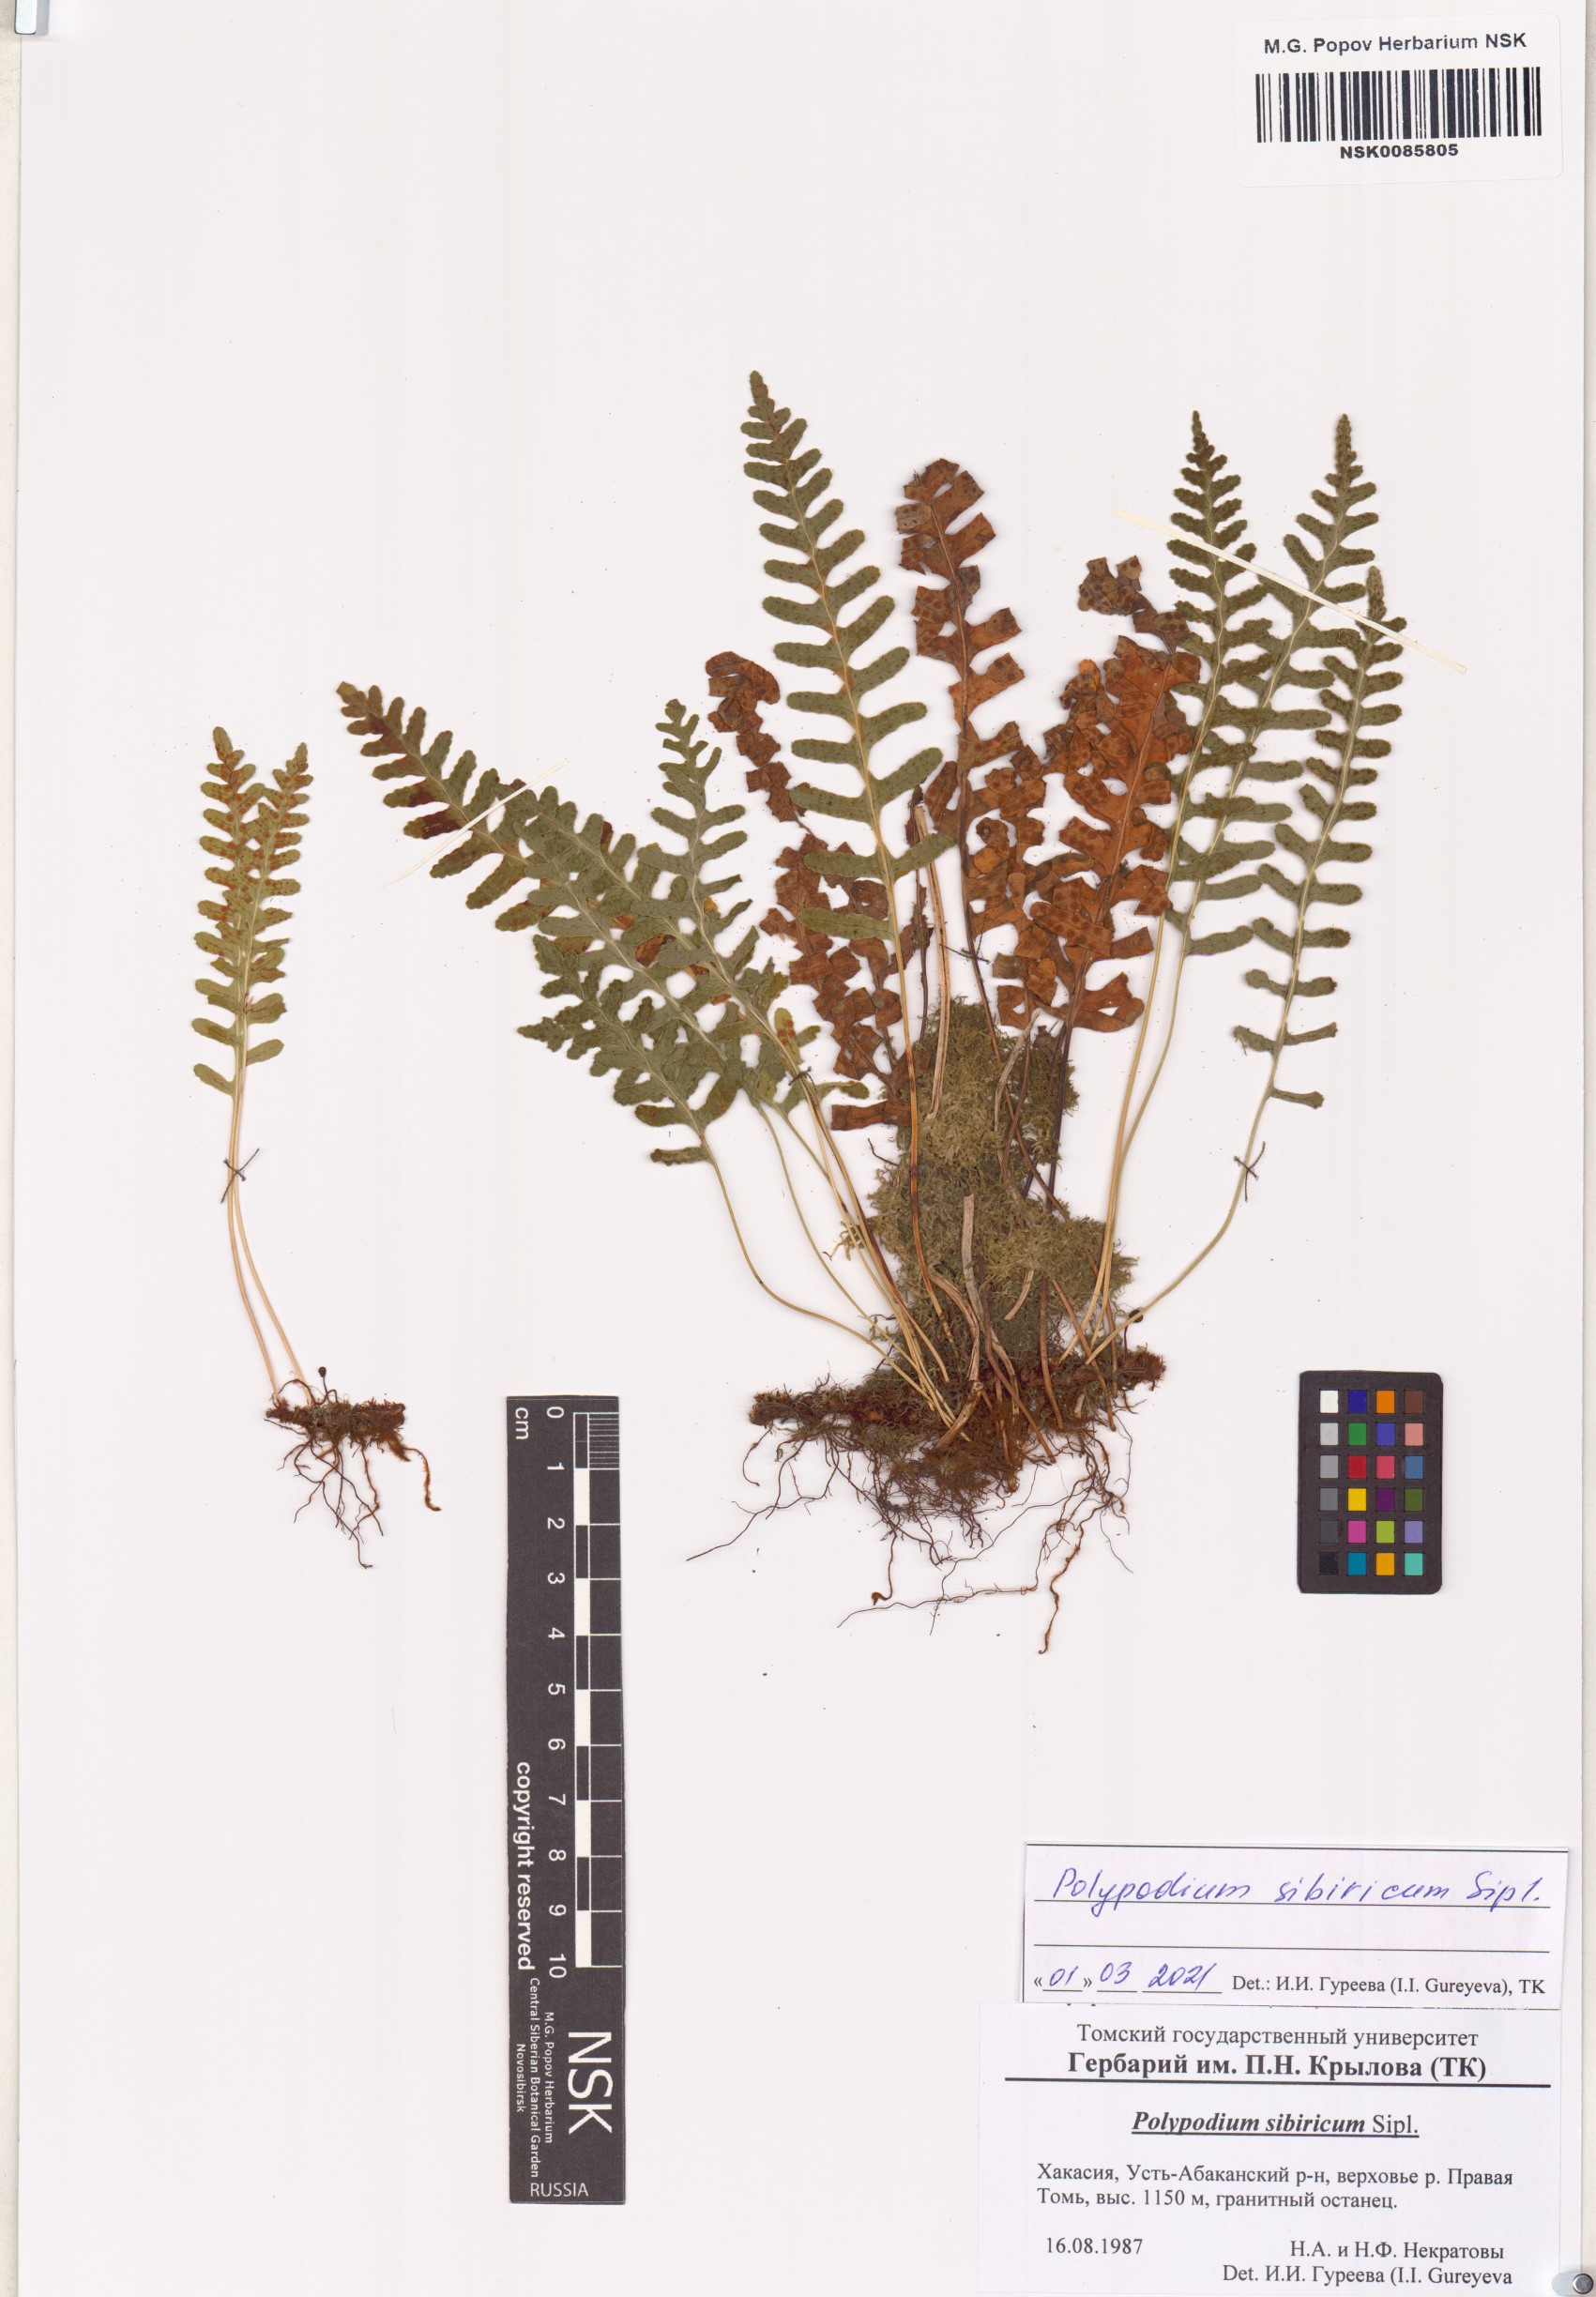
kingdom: Plantae
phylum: Tracheophyta
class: Polypodiopsida
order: Polypodiales
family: Polypodiaceae
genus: Polypodium
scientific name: Polypodium sibiricum
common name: Siberian polypody
